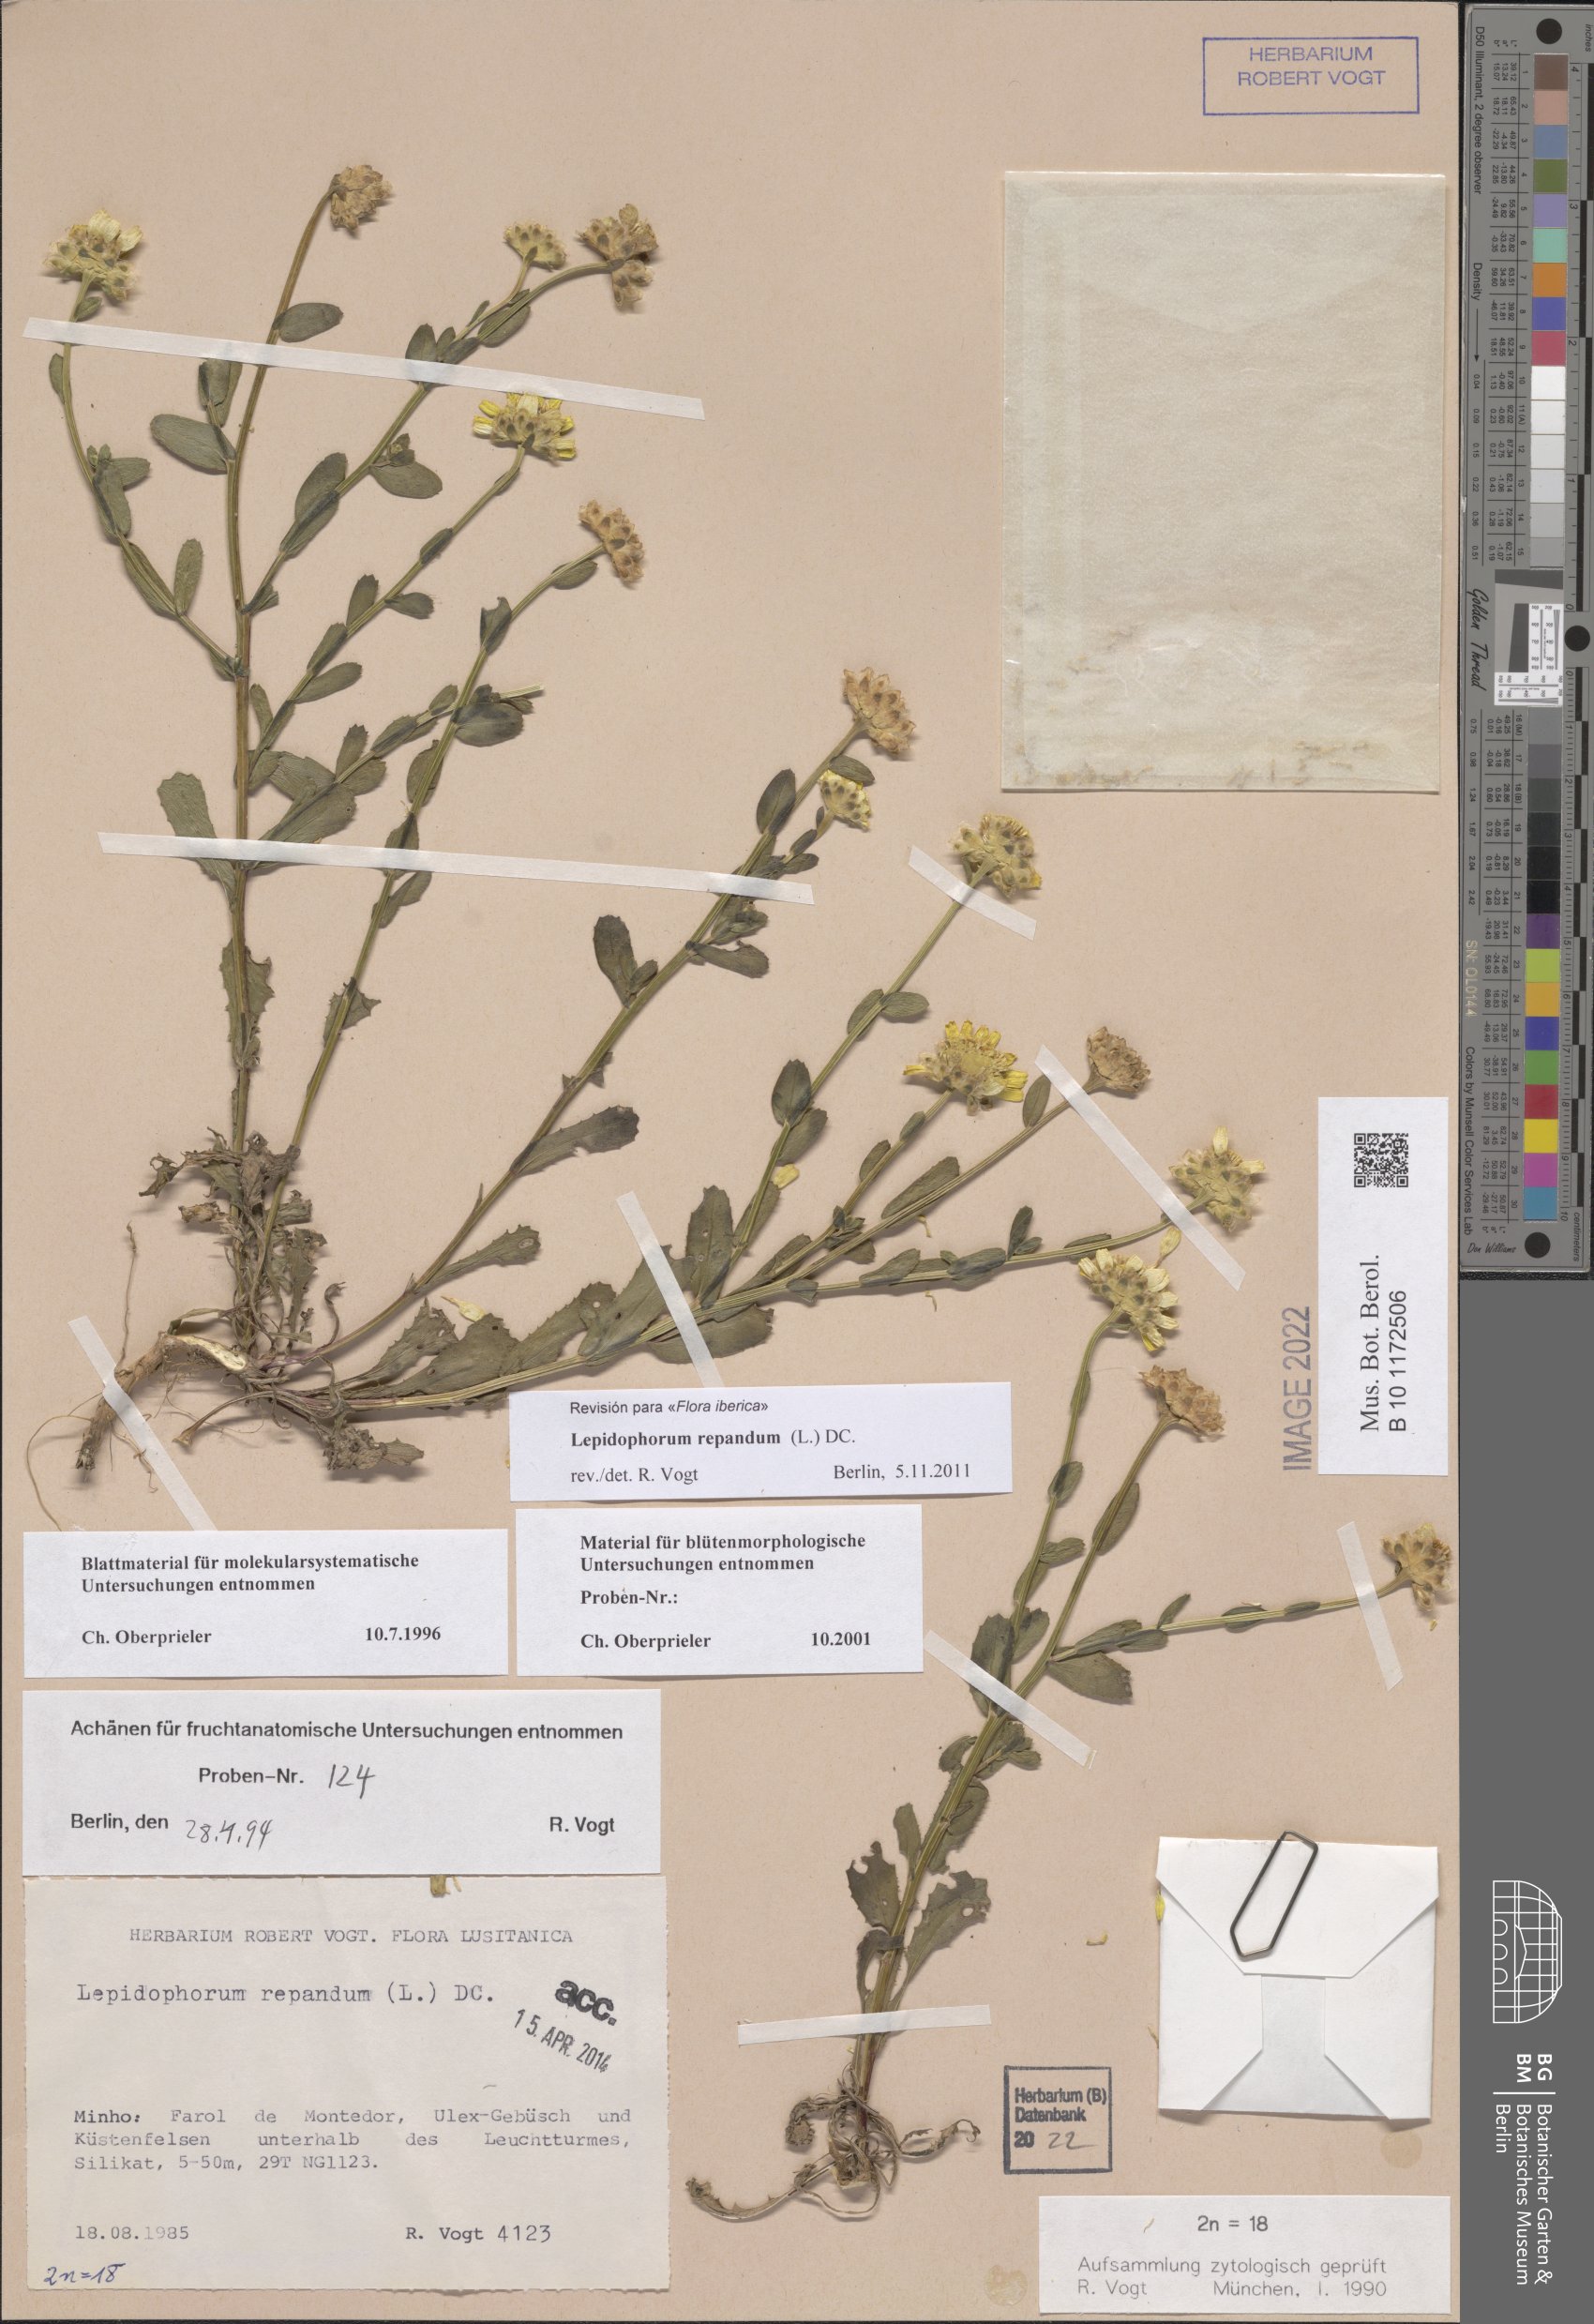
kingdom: Plantae
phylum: Tracheophyta
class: Magnoliopsida
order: Asterales
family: Asteraceae
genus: Lepidophorum
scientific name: Lepidophorum repandum
